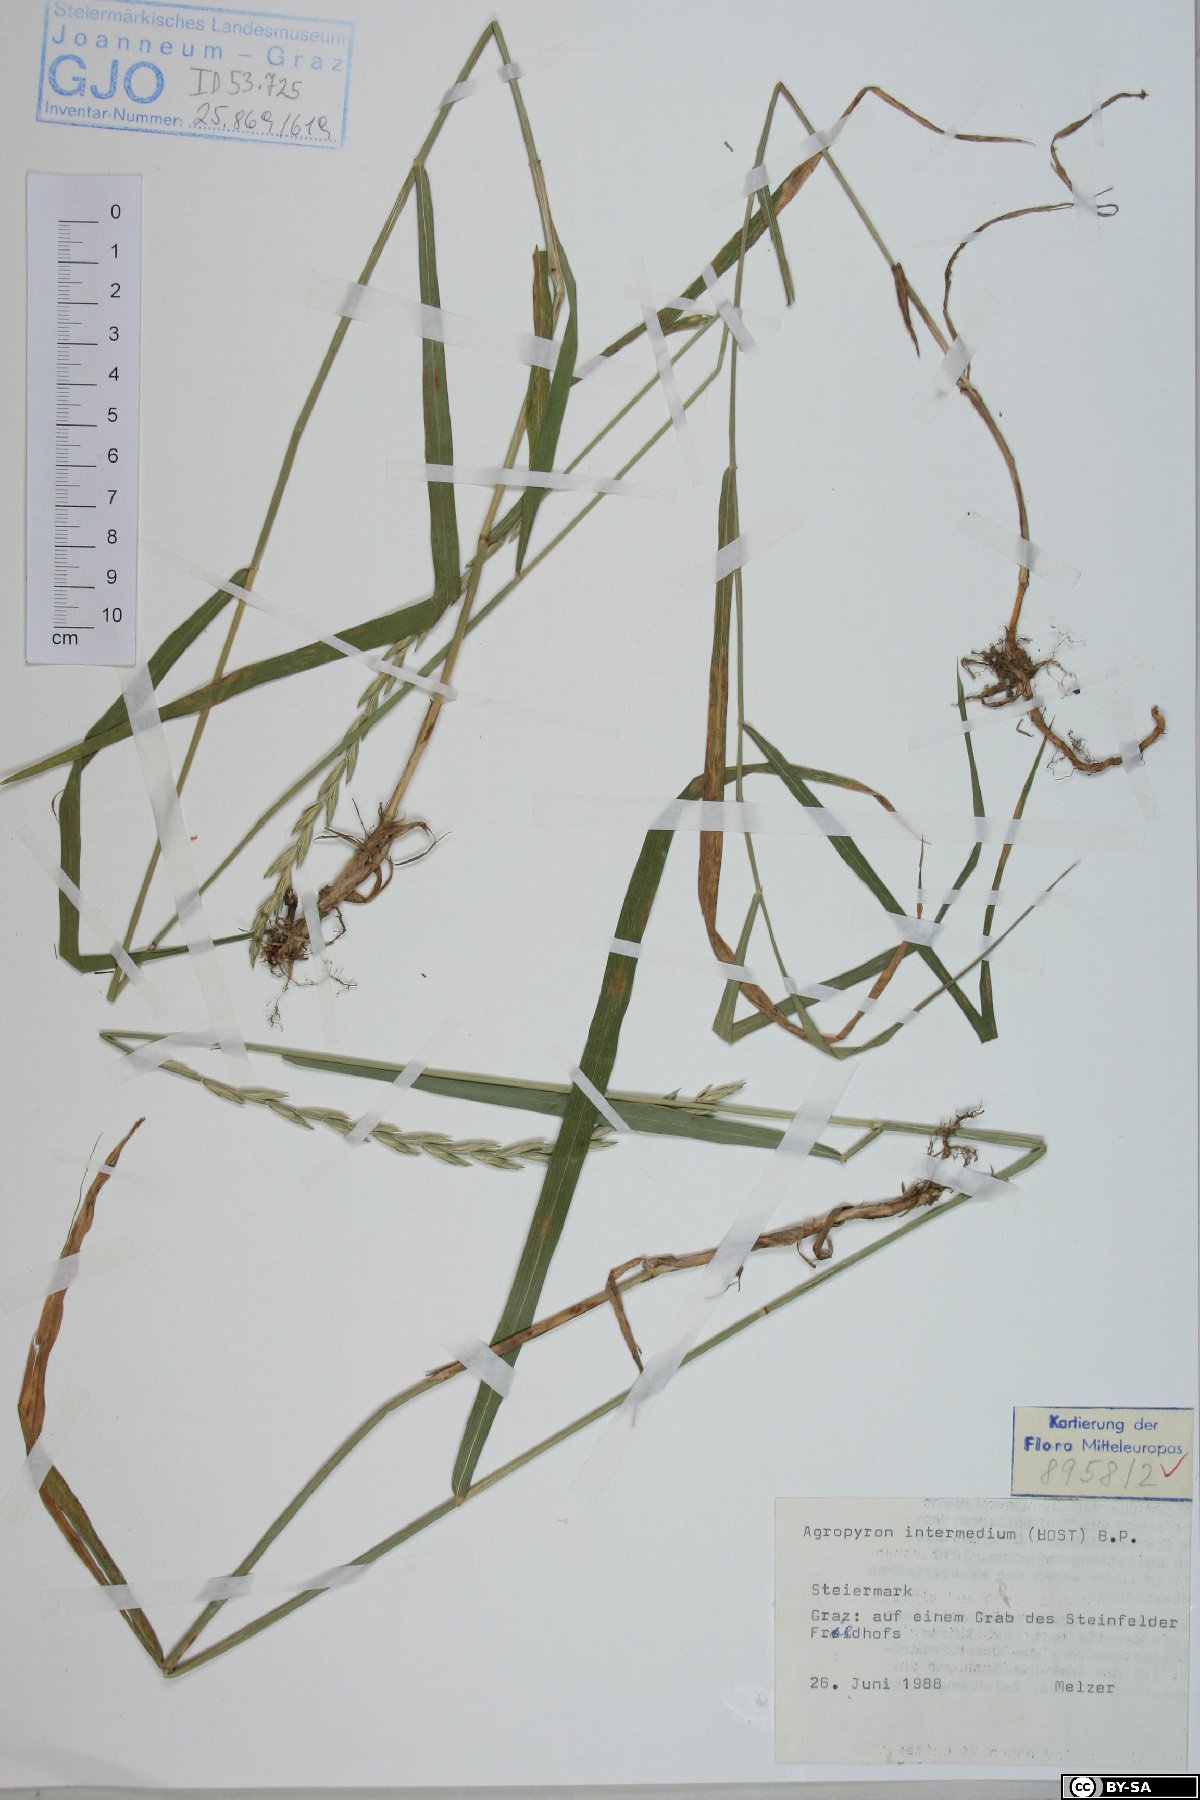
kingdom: Plantae
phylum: Tracheophyta
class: Liliopsida
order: Poales
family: Poaceae
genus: Thinopyrum
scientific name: Thinopyrum intermedium
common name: Intermediate wheatgrass
